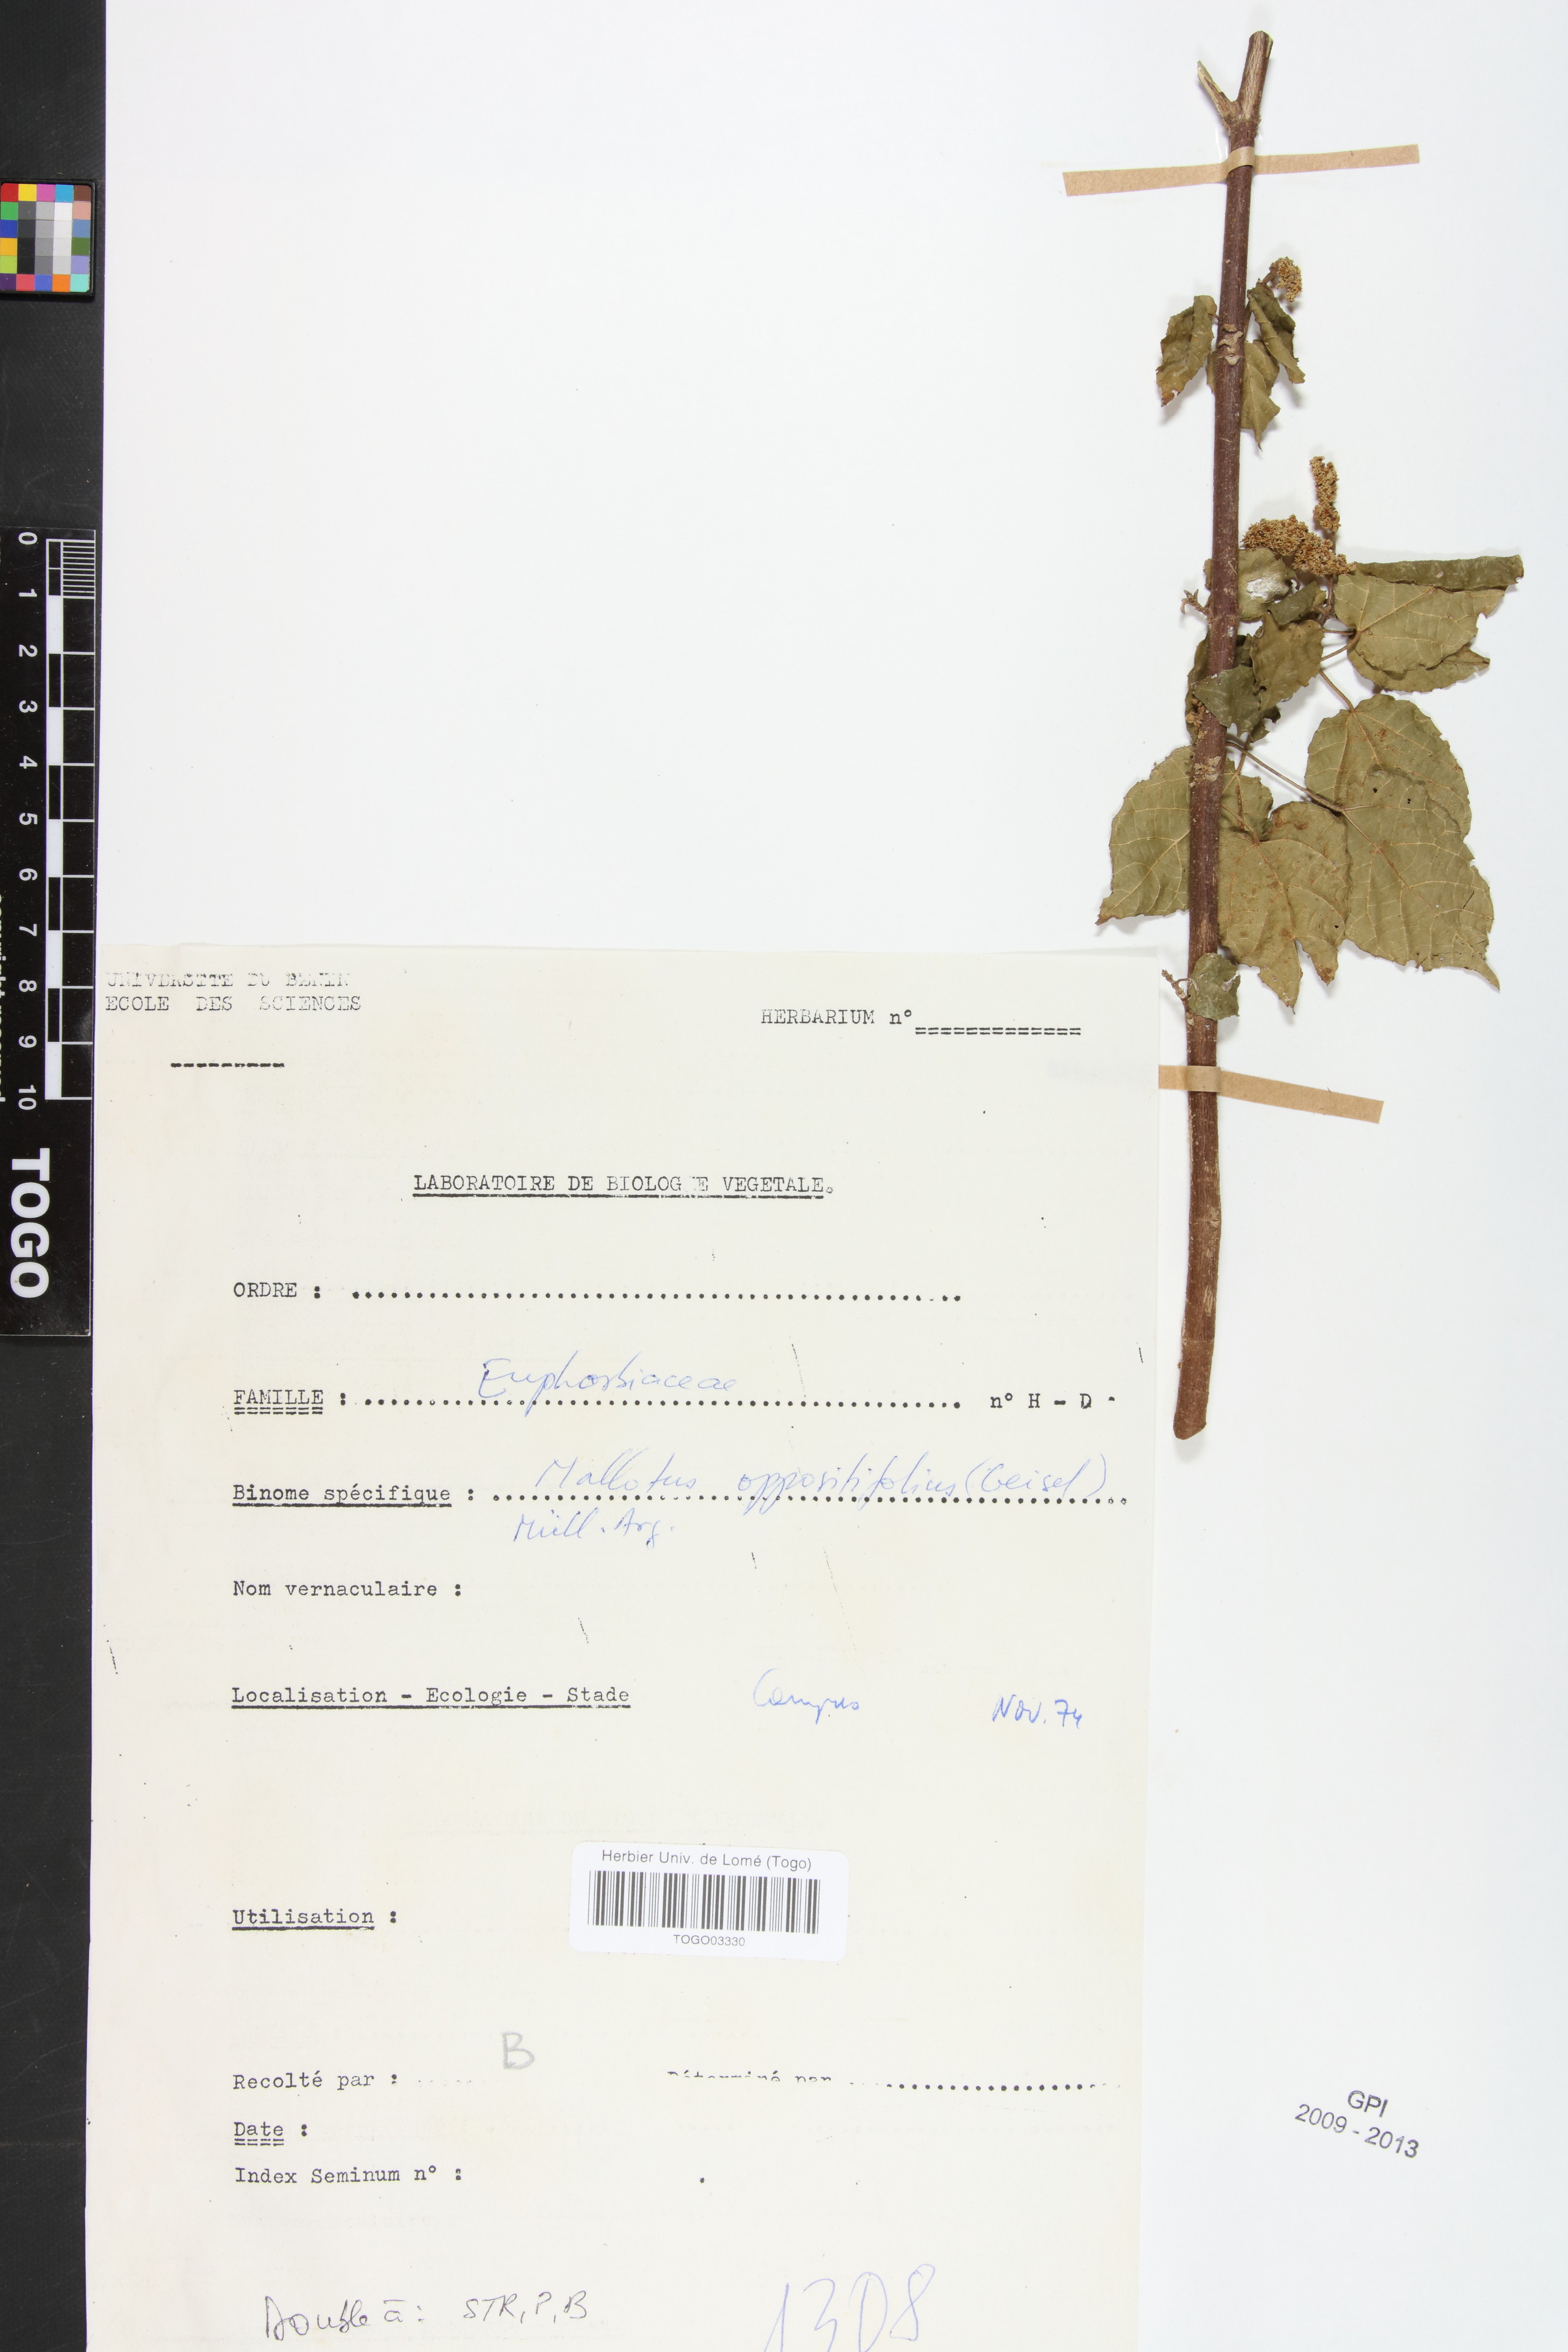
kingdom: Plantae
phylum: Tracheophyta
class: Magnoliopsida
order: Malpighiales
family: Euphorbiaceae
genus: Mallotus
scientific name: Mallotus oppositifolius
